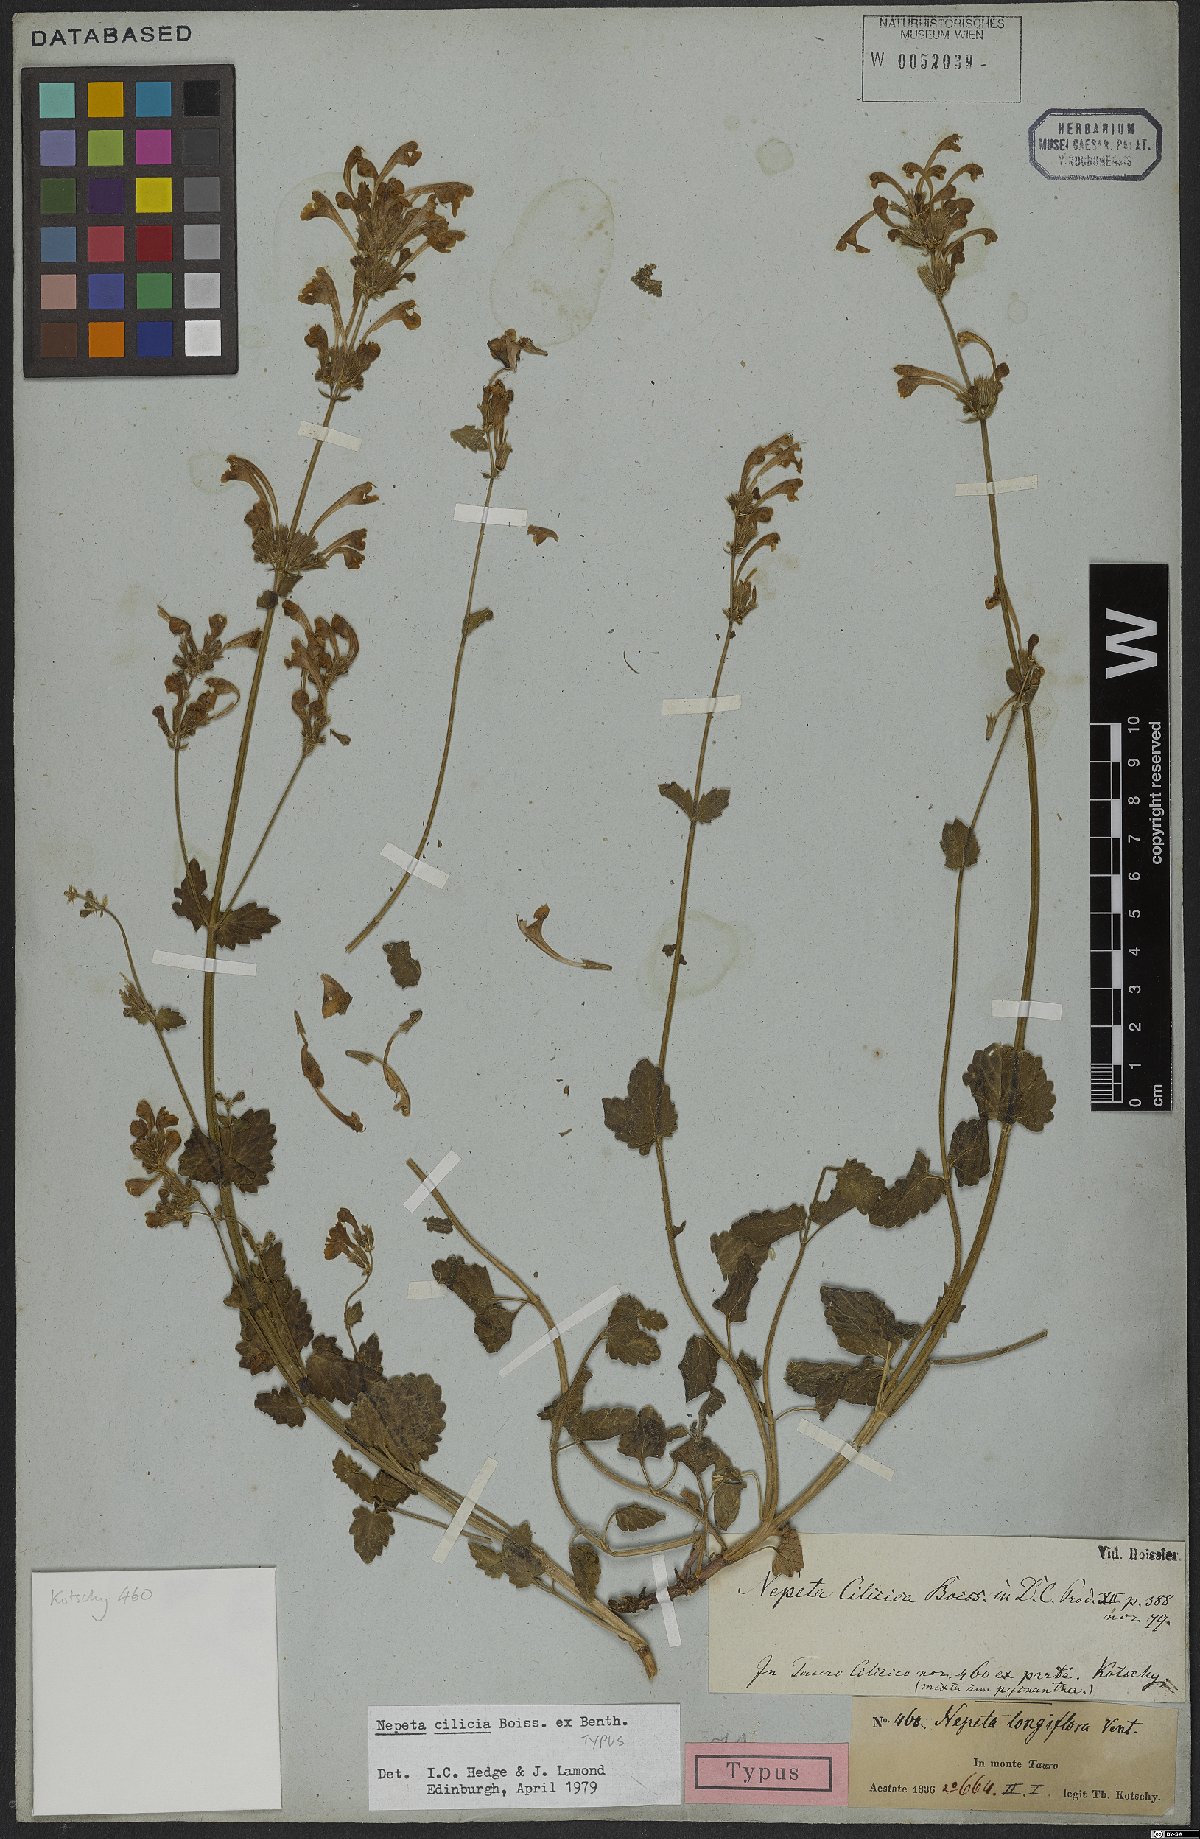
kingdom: Plantae
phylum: Tracheophyta
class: Magnoliopsida
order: Lamiales
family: Lamiaceae
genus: Nepeta
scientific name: Nepeta cilicica
